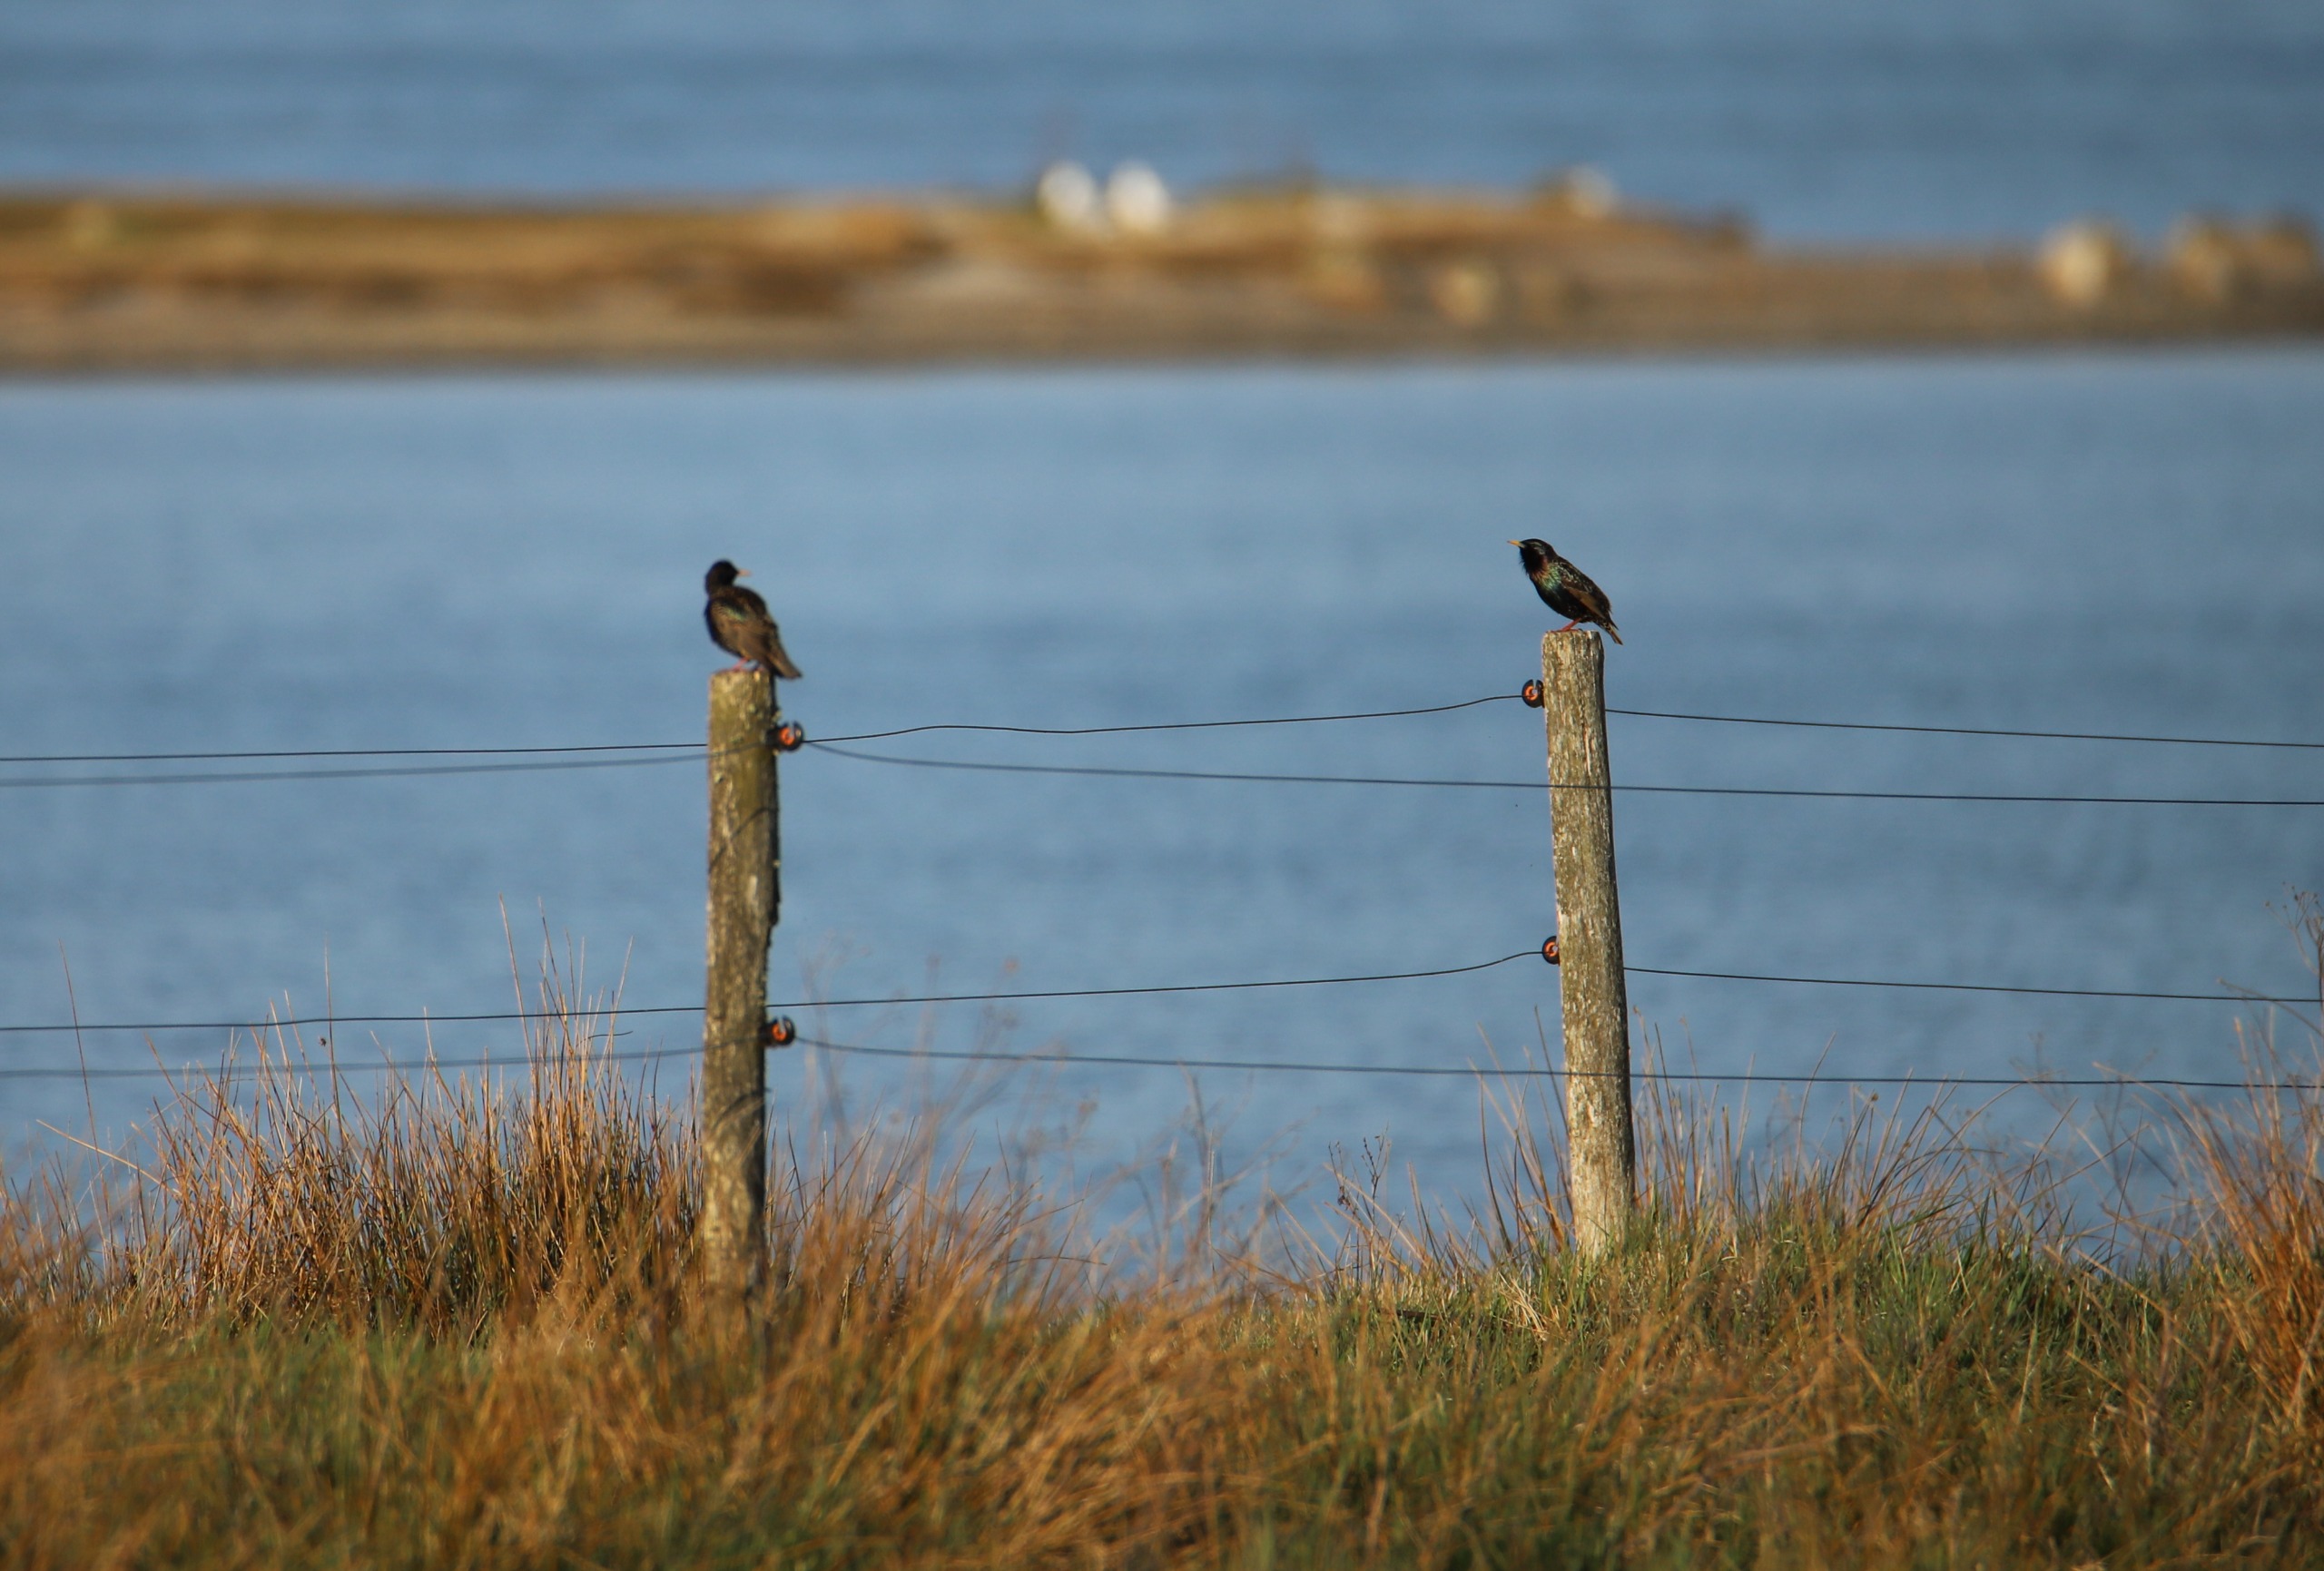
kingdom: Animalia
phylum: Chordata
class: Aves
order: Passeriformes
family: Sturnidae
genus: Sturnus
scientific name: Sturnus vulgaris
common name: Stær
